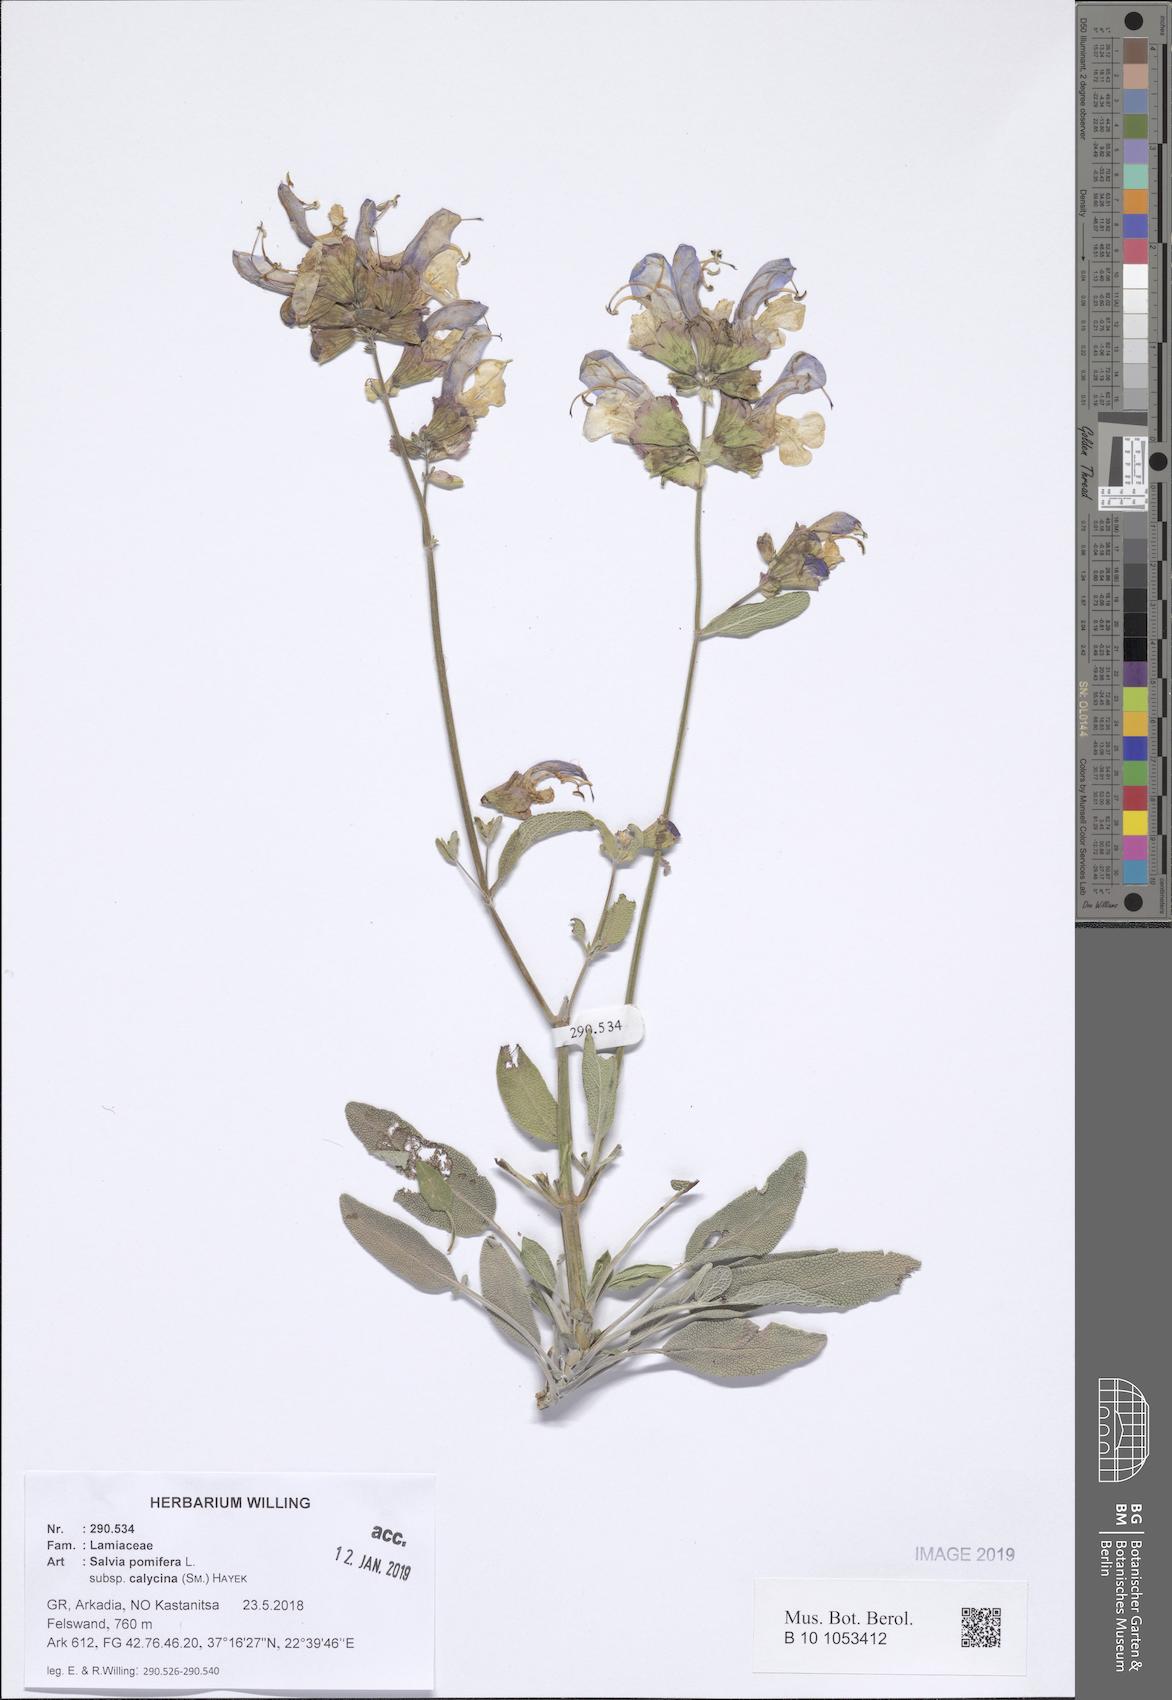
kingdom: Plantae
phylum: Tracheophyta
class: Magnoliopsida
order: Lamiales
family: Lamiaceae
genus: Salvia
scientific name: Salvia pomifera
